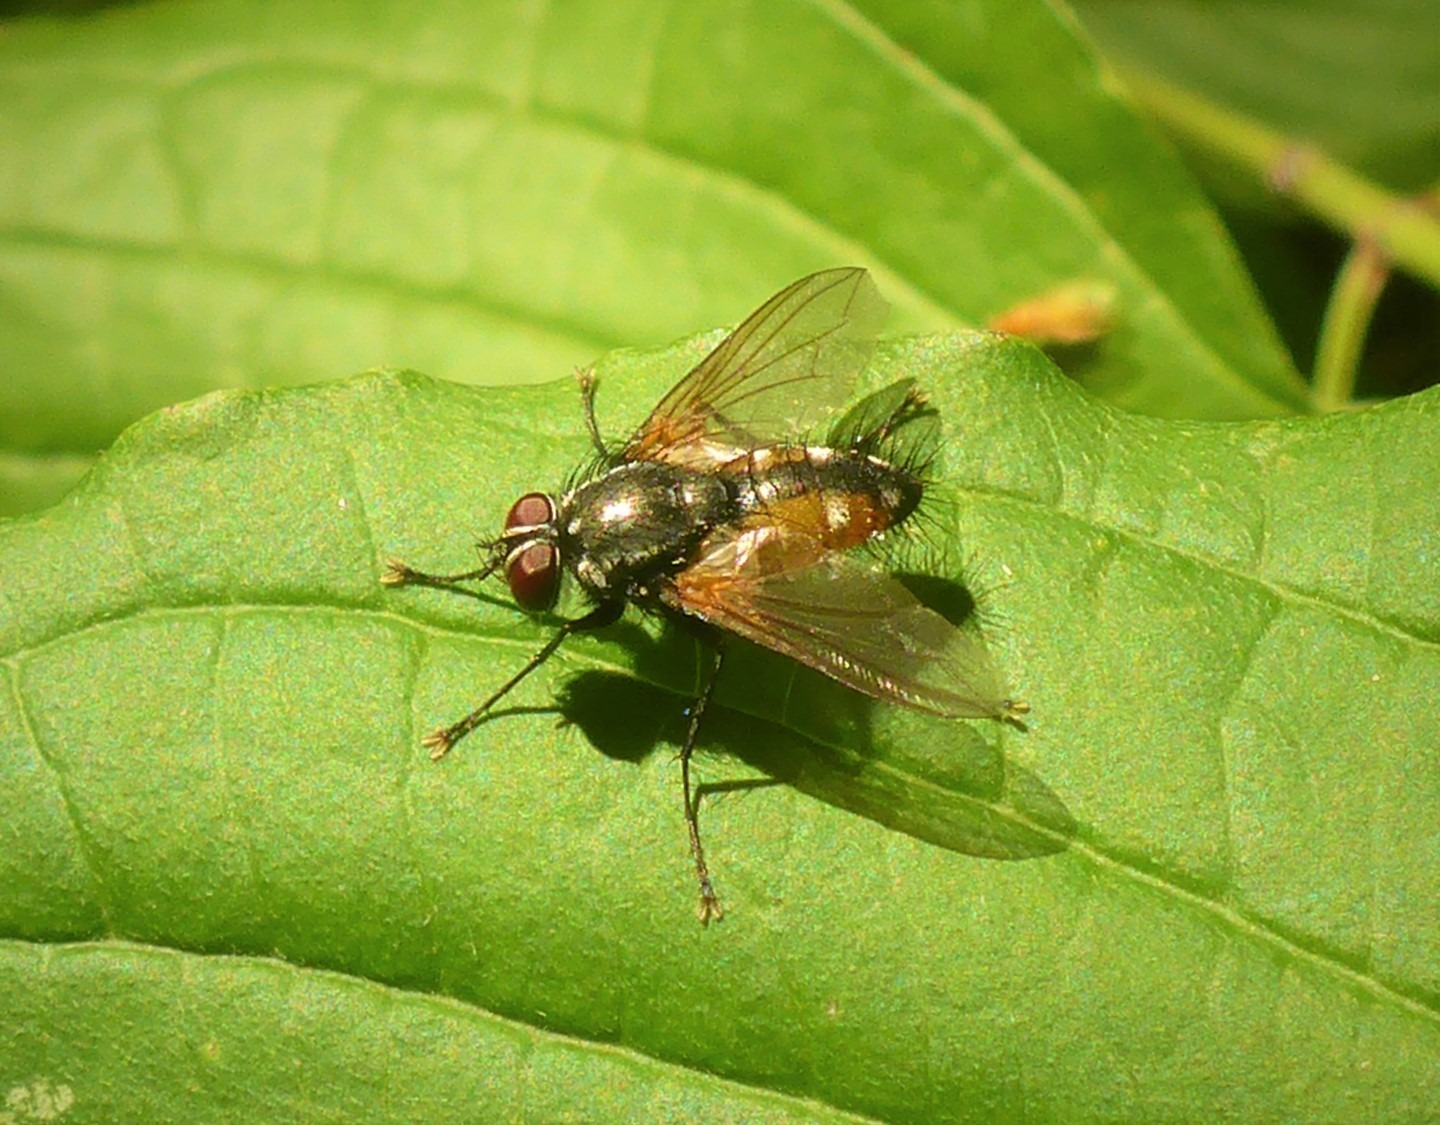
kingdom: Animalia
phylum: Arthropoda
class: Insecta
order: Diptera
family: Tachinidae
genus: Thelaira
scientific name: Thelaira nigripes
